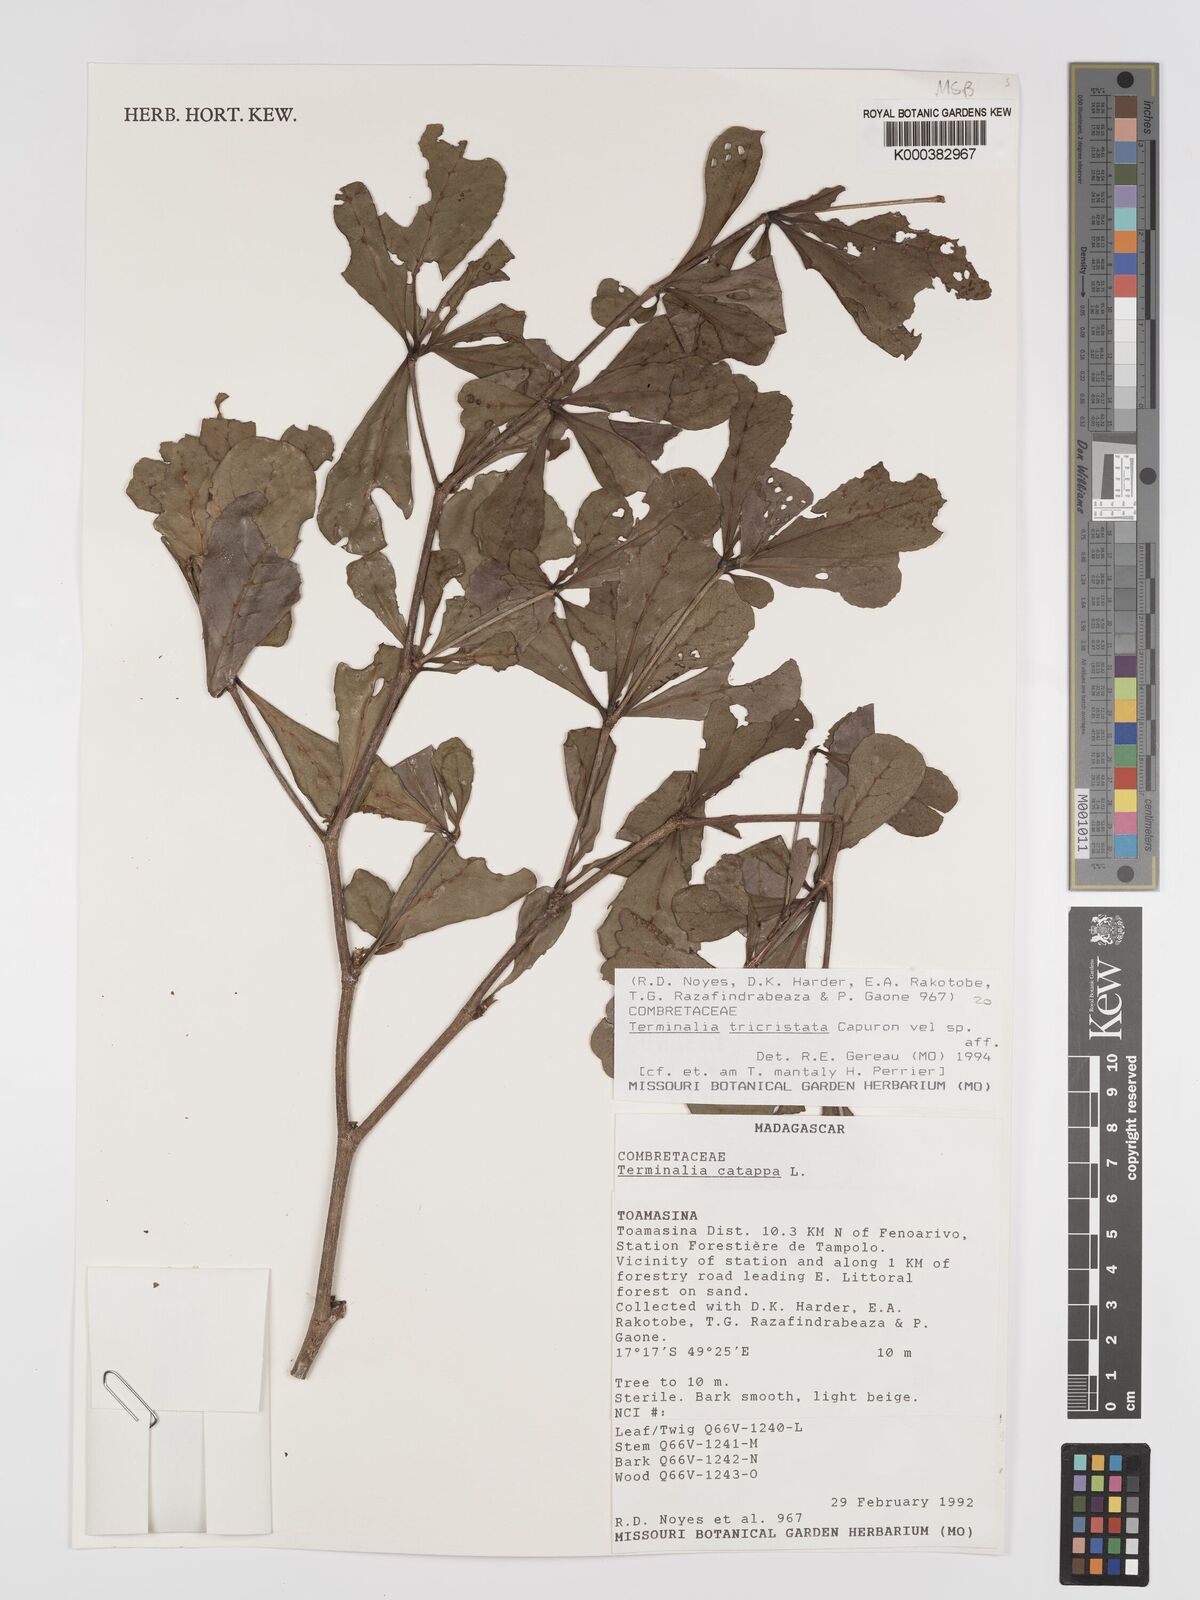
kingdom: Plantae
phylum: Tracheophyta
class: Magnoliopsida
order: Myrtales
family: Combretaceae
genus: Terminalia
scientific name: Terminalia
